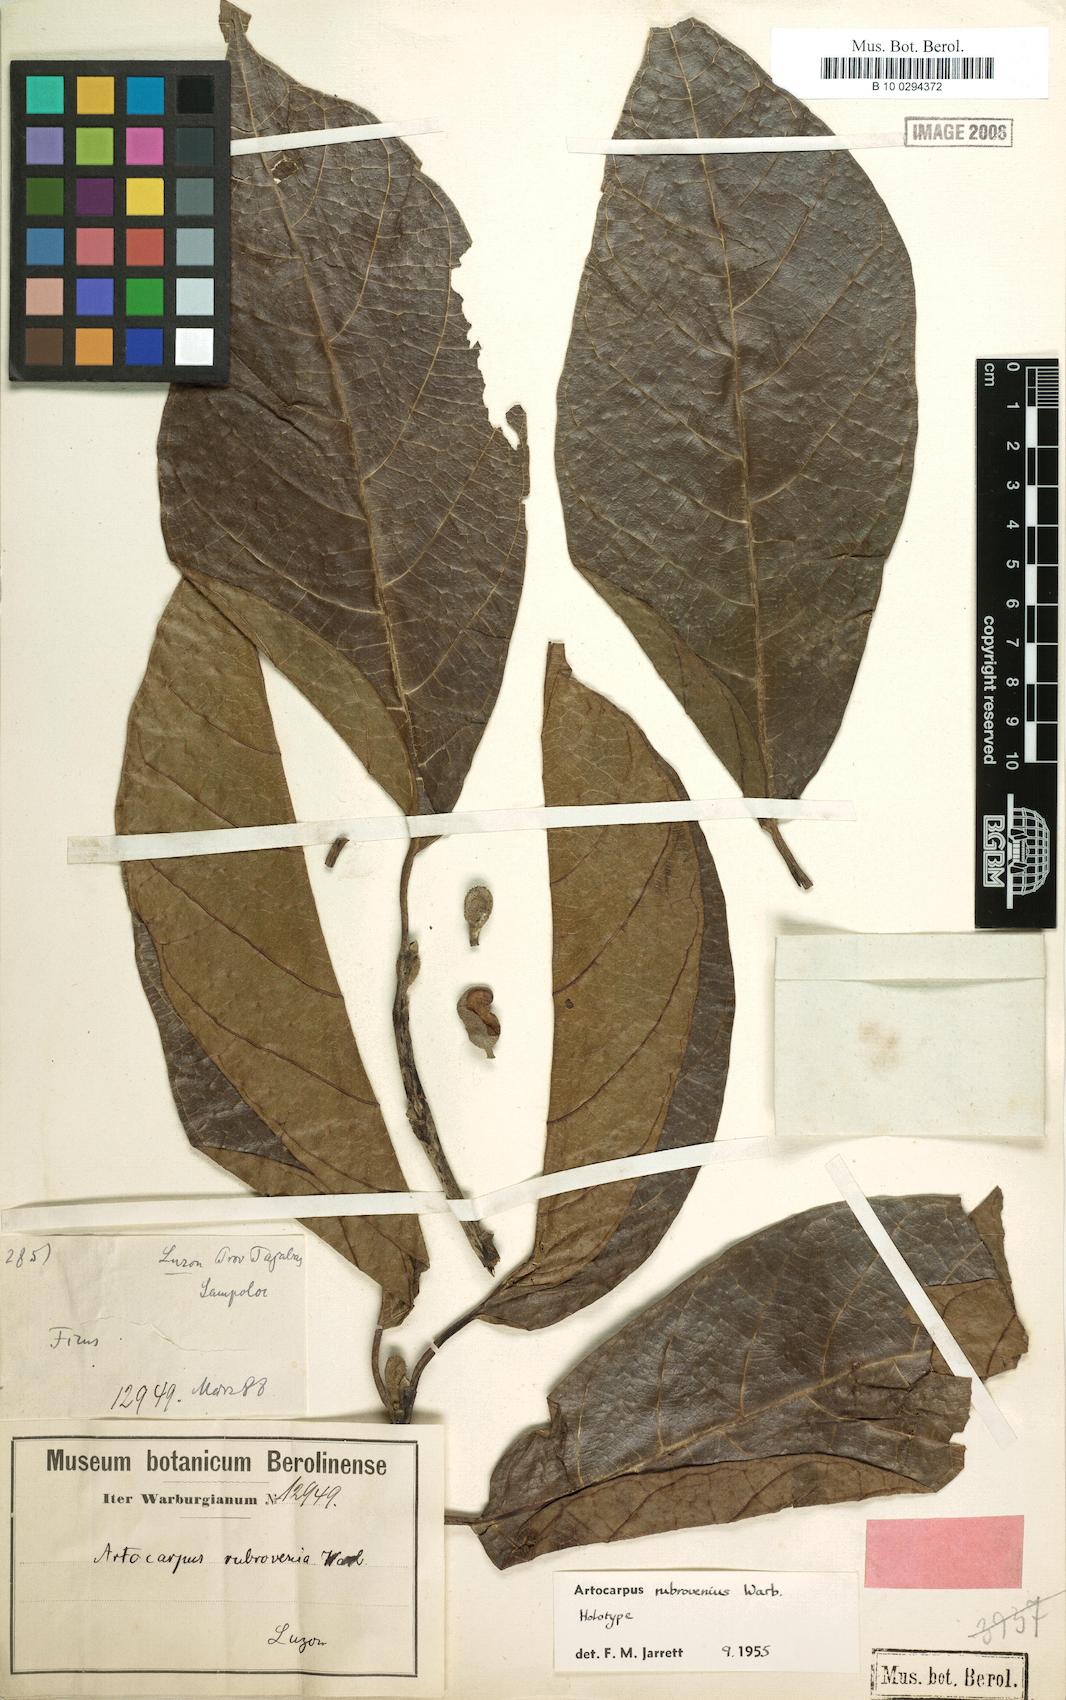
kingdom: Plantae
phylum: Tracheophyta
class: Magnoliopsida
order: Rosales
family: Moraceae
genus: Artocarpus
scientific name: Artocarpus rubrovenius
